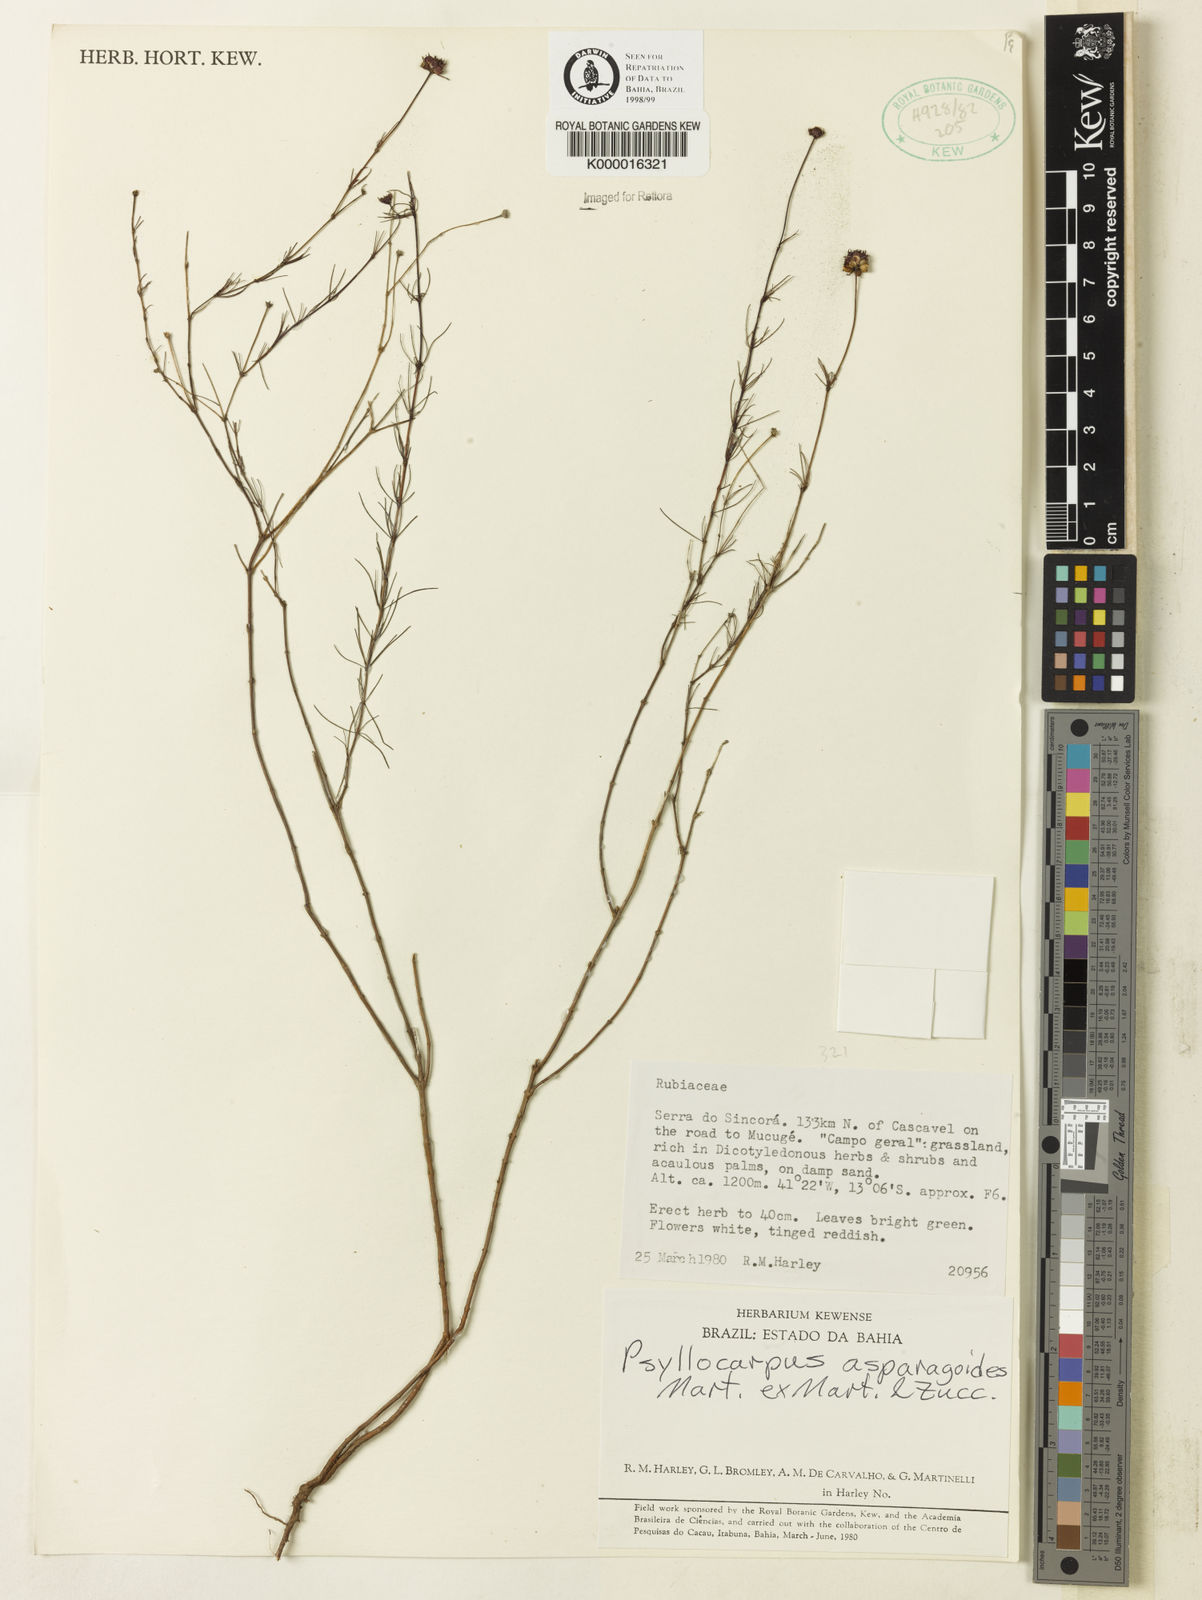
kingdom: Plantae
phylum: Tracheophyta
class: Magnoliopsida
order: Gentianales
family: Rubiaceae
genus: Psyllocarpus
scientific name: Psyllocarpus asparagoides
